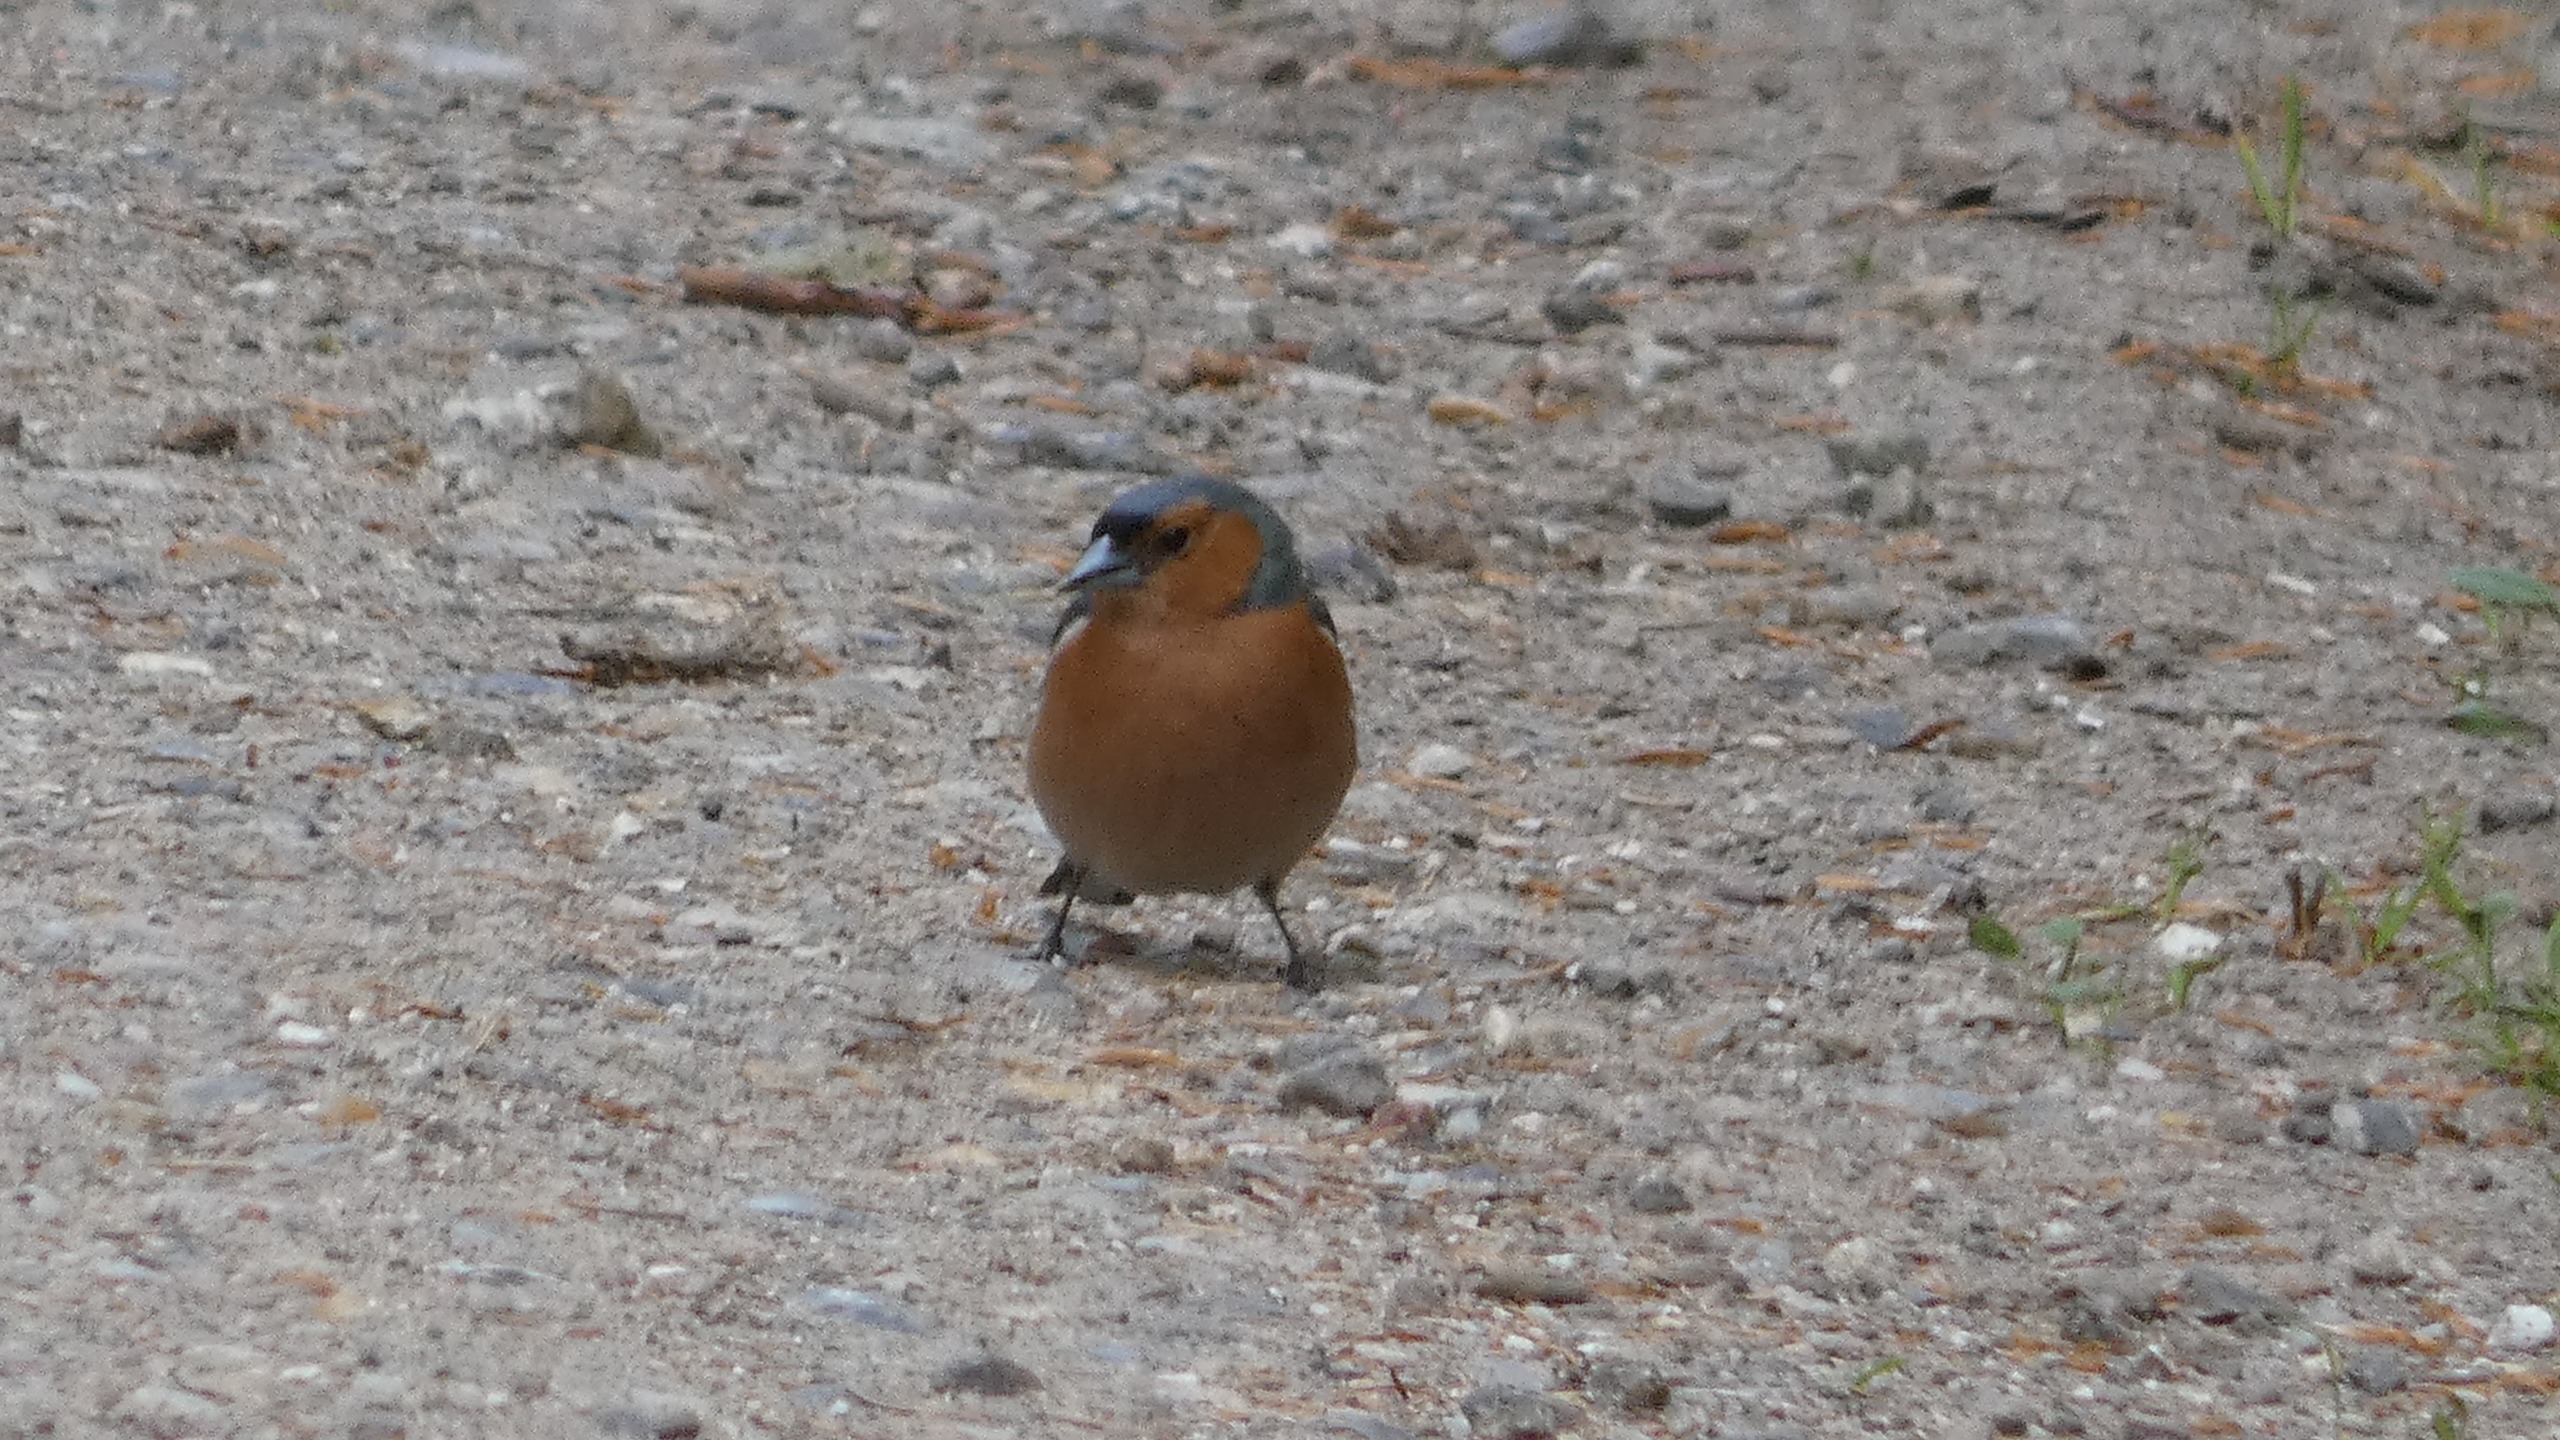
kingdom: Animalia
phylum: Chordata
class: Aves
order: Passeriformes
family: Fringillidae
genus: Fringilla
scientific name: Fringilla coelebs
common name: Bogfinke
